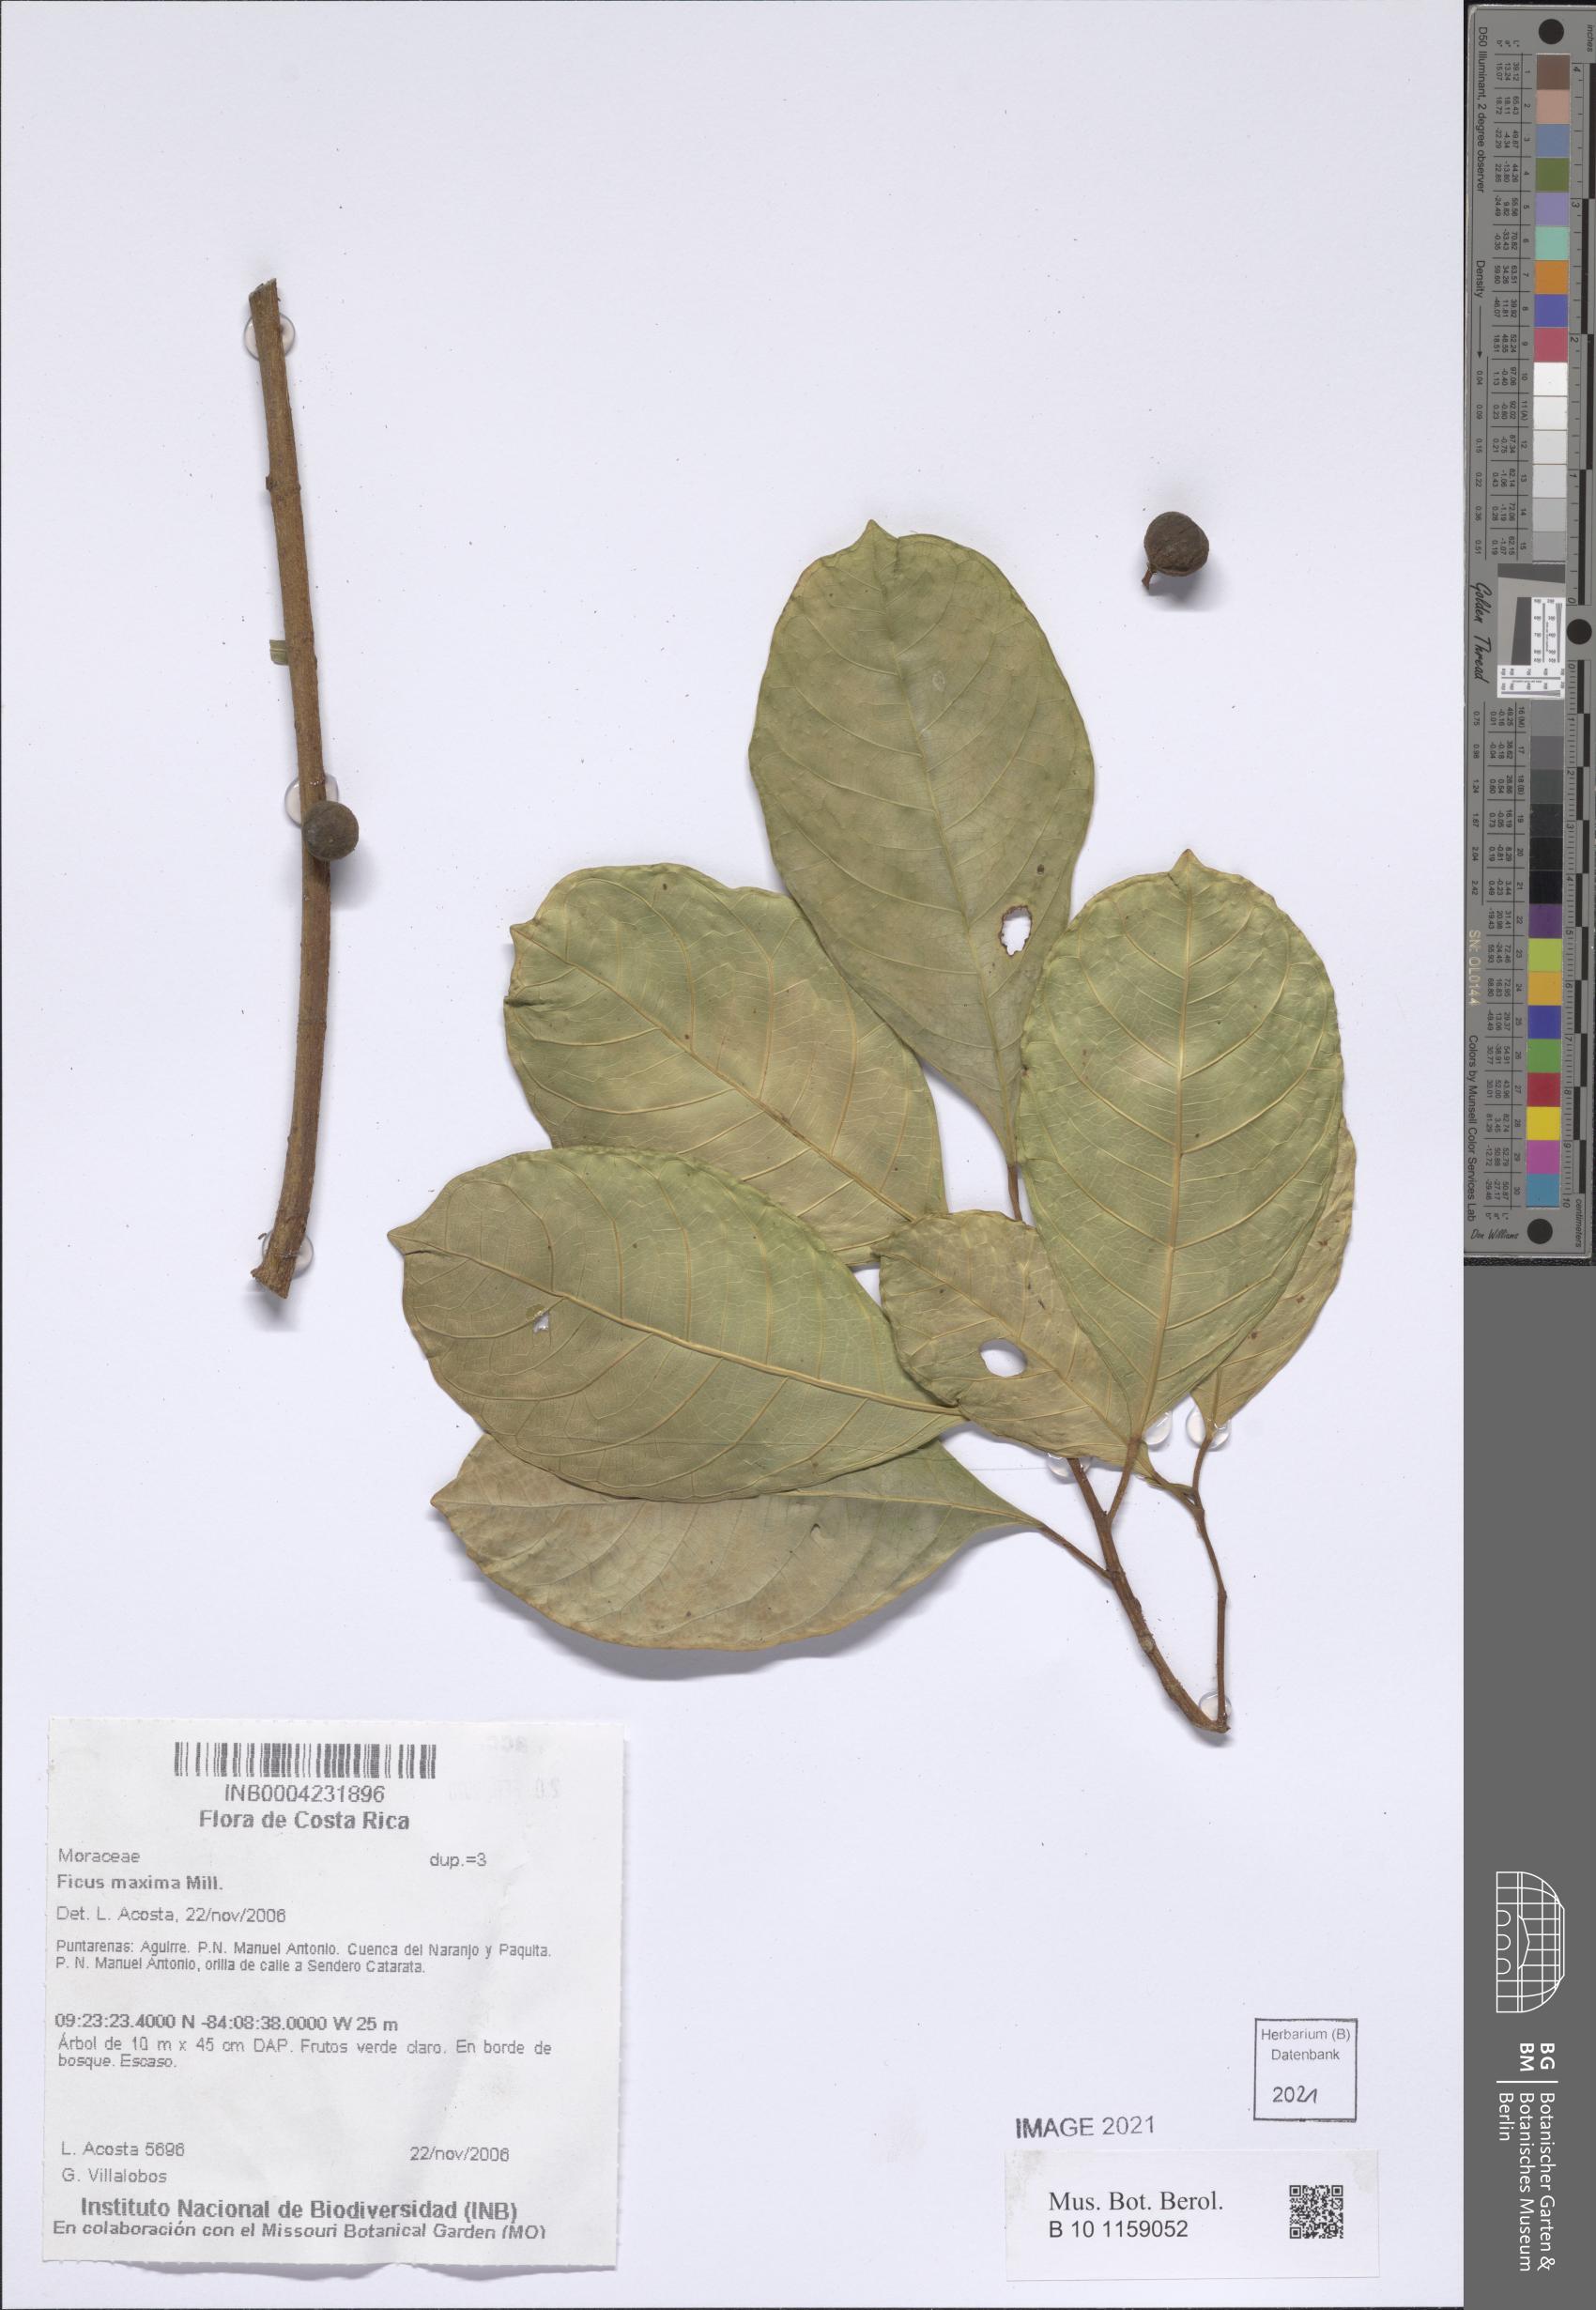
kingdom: Plantae
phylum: Tracheophyta
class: Magnoliopsida
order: Rosales
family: Moraceae
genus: Ficus
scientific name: Ficus maxima
